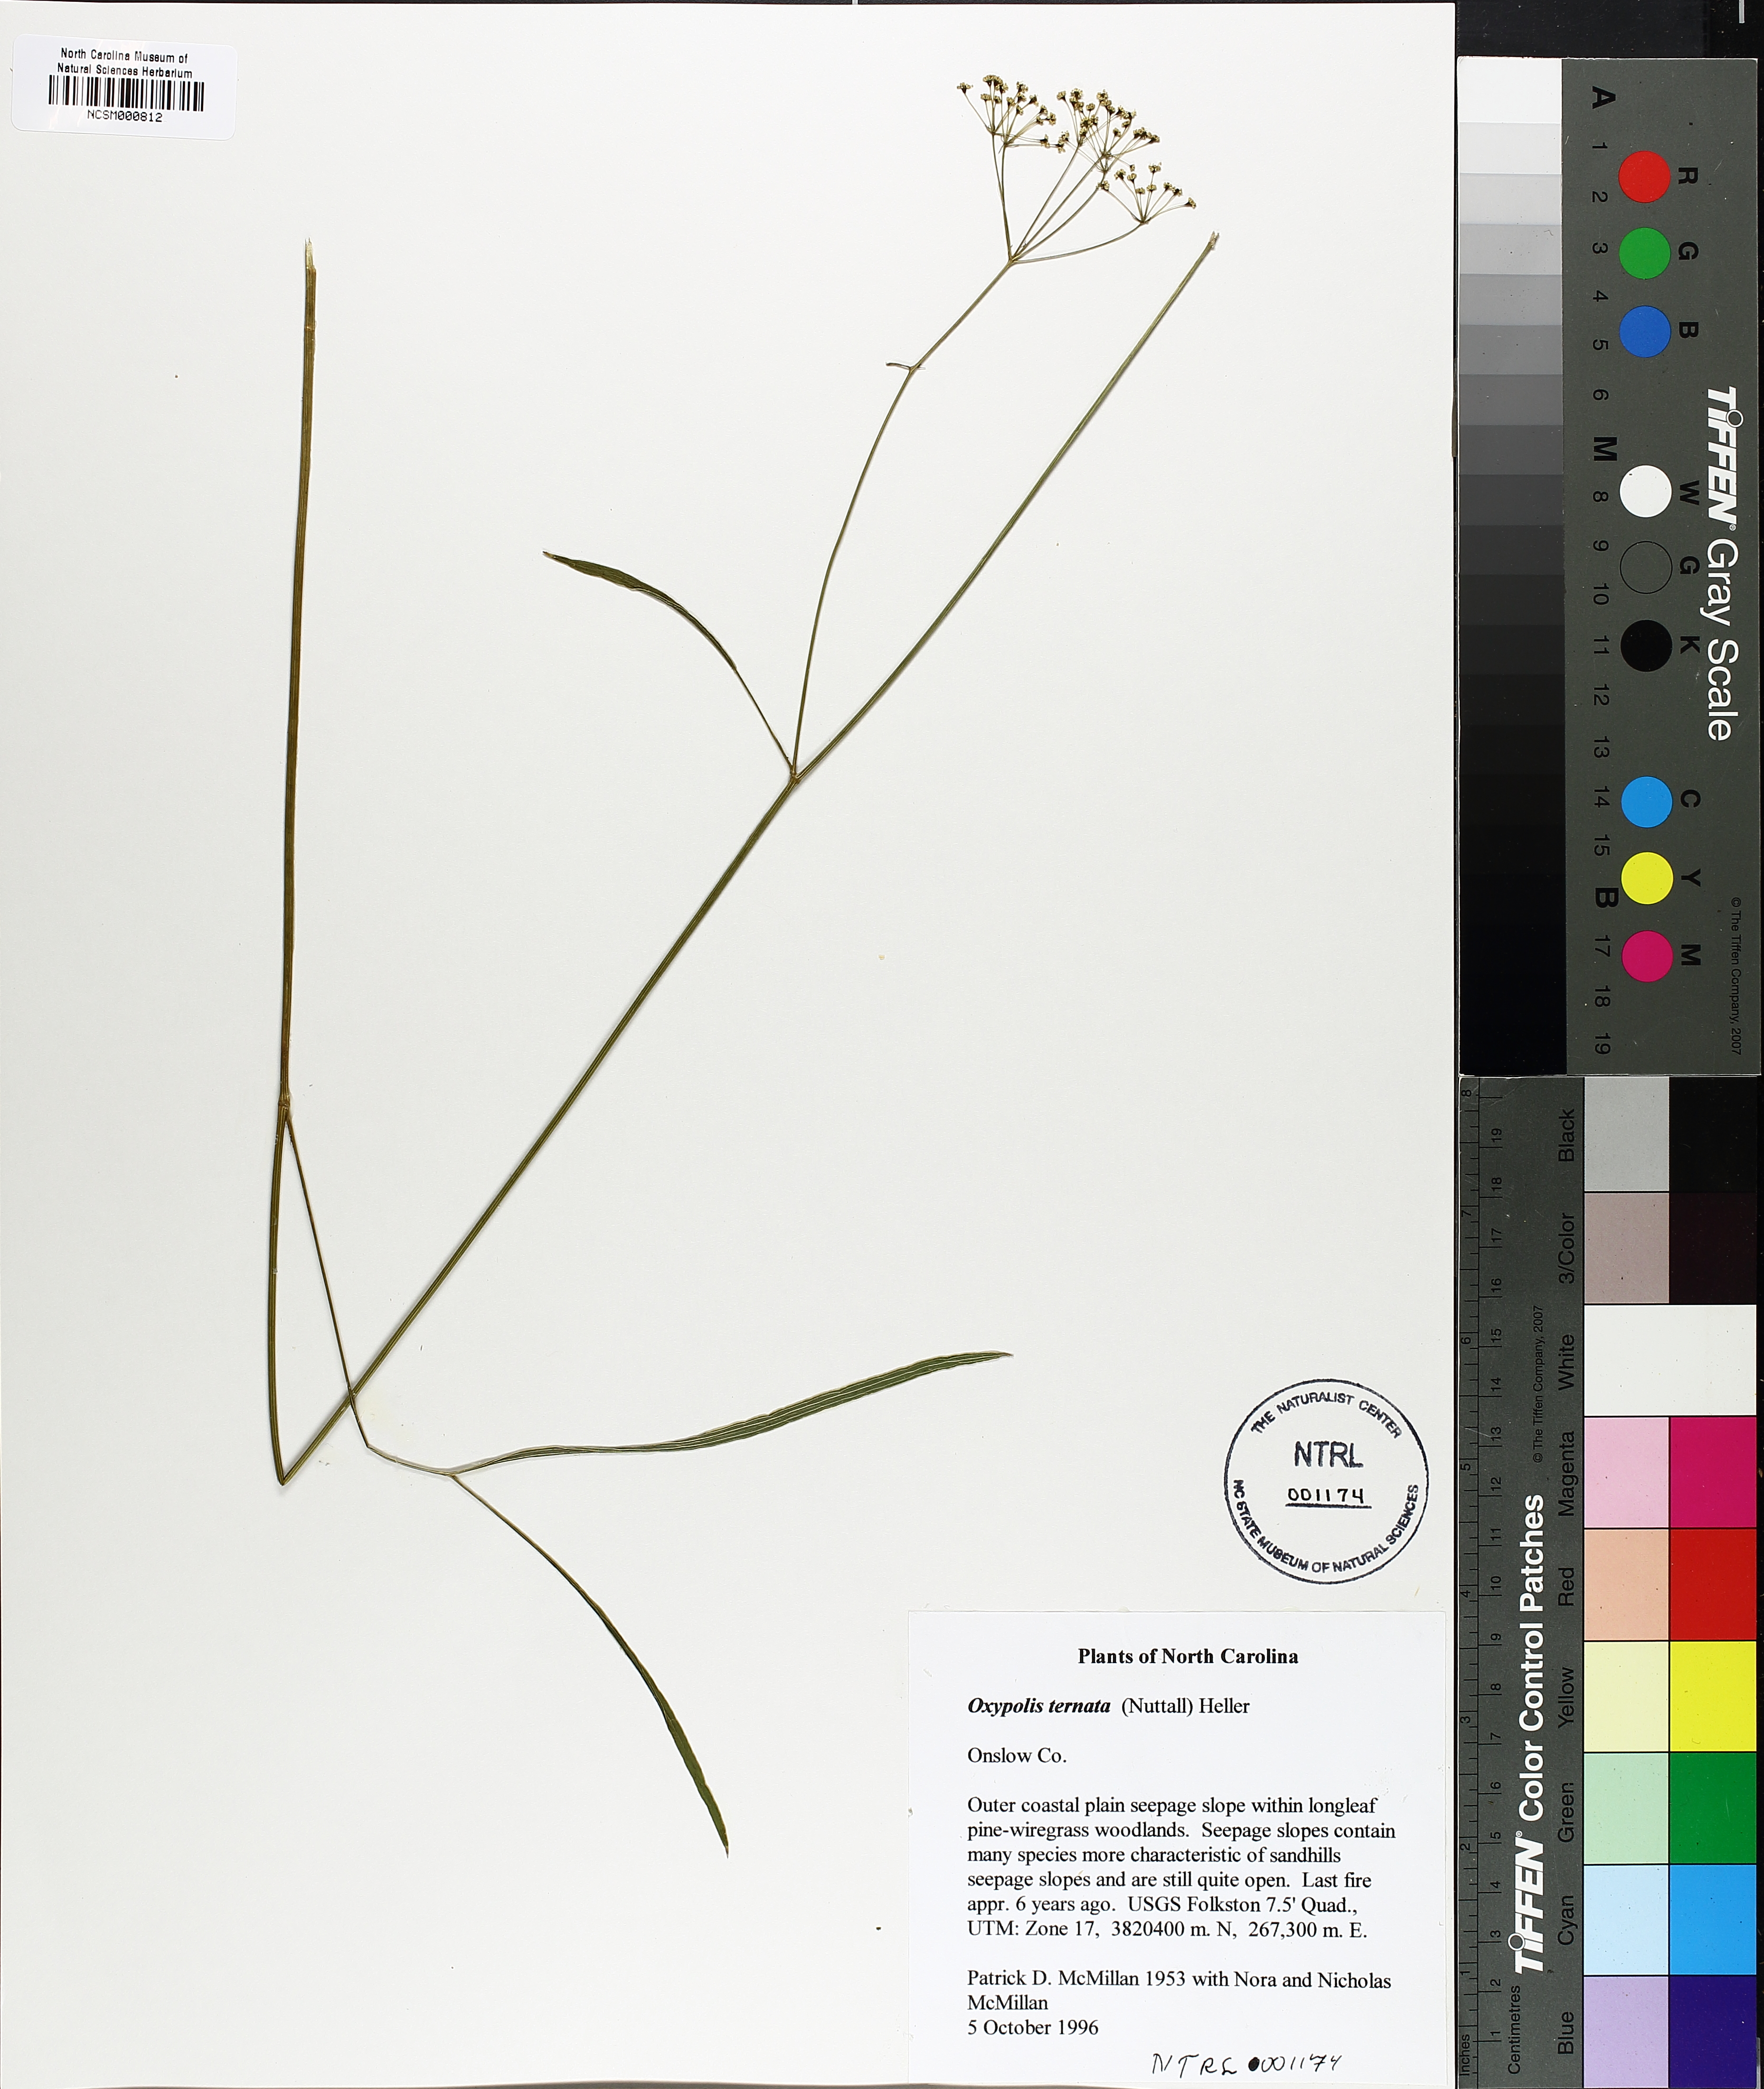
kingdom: Plantae
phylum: Tracheophyta
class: Magnoliopsida
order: Apiales
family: Apiaceae
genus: Oxypolis
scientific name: Oxypolis ternata
